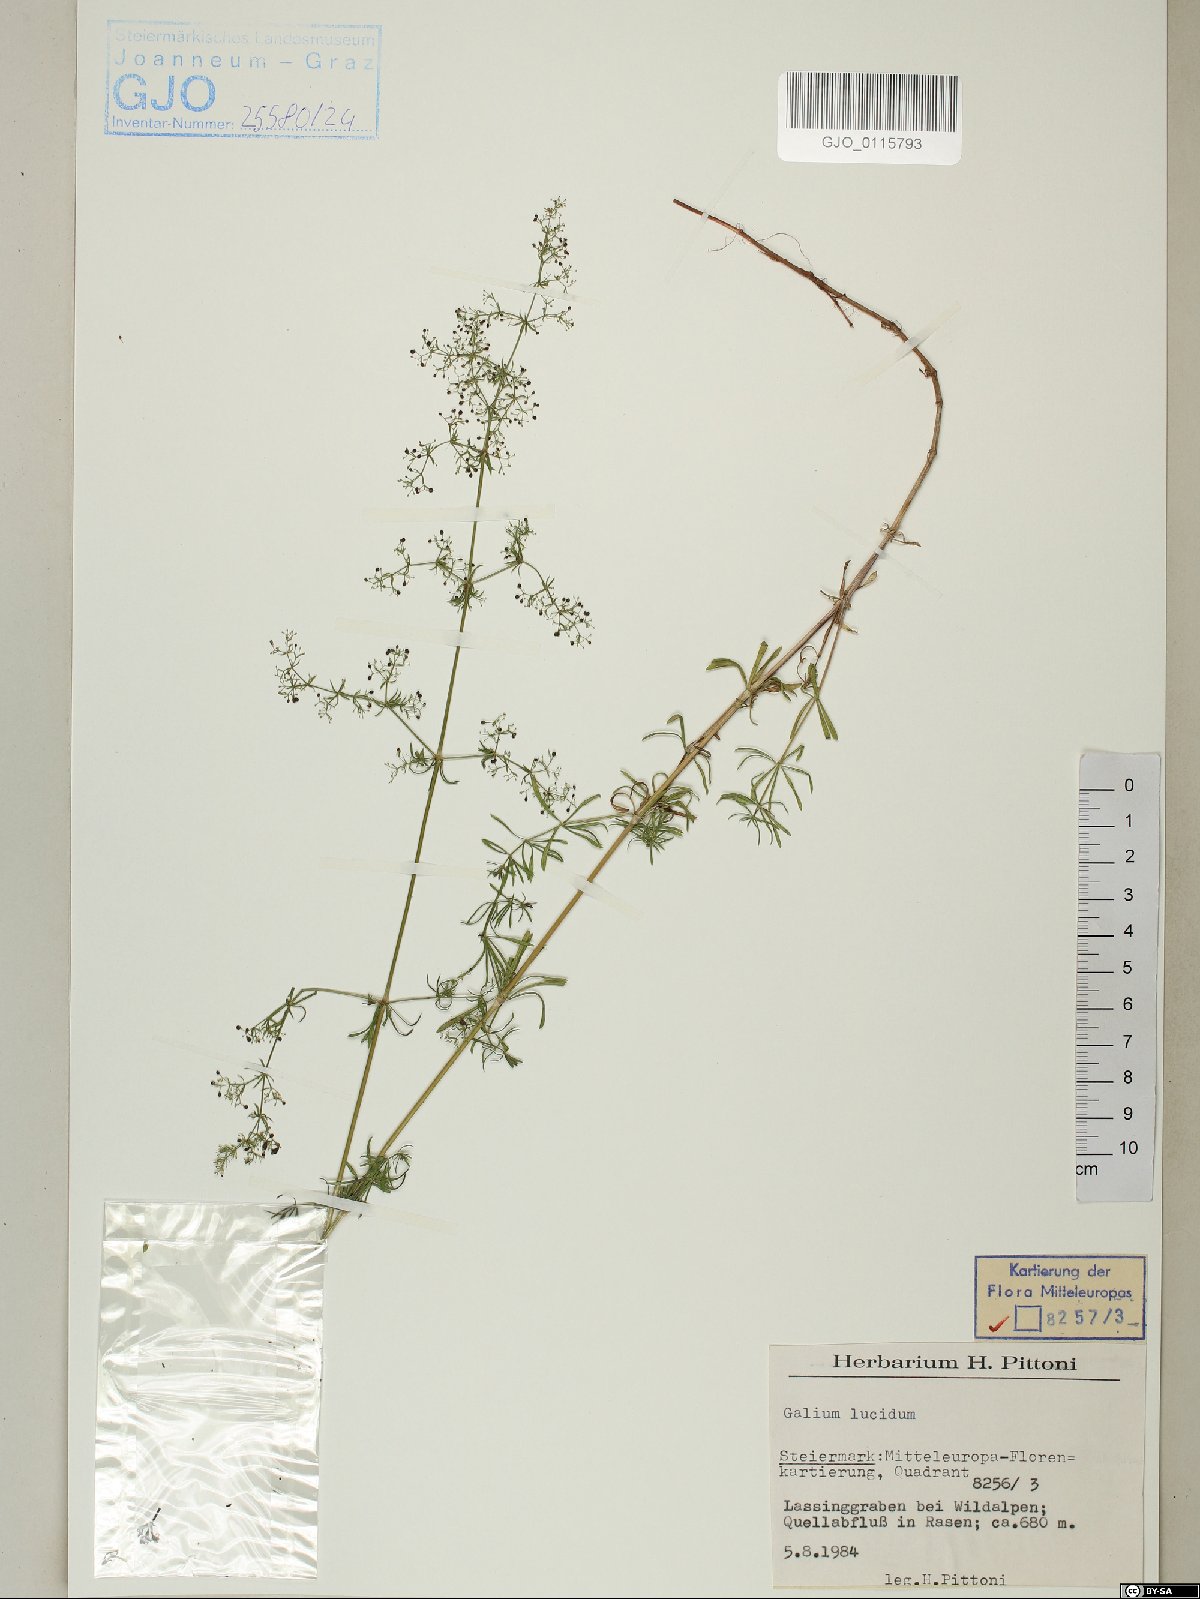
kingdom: Plantae
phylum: Tracheophyta
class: Magnoliopsida
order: Gentianales
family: Rubiaceae
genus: Galium
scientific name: Galium lucidum
